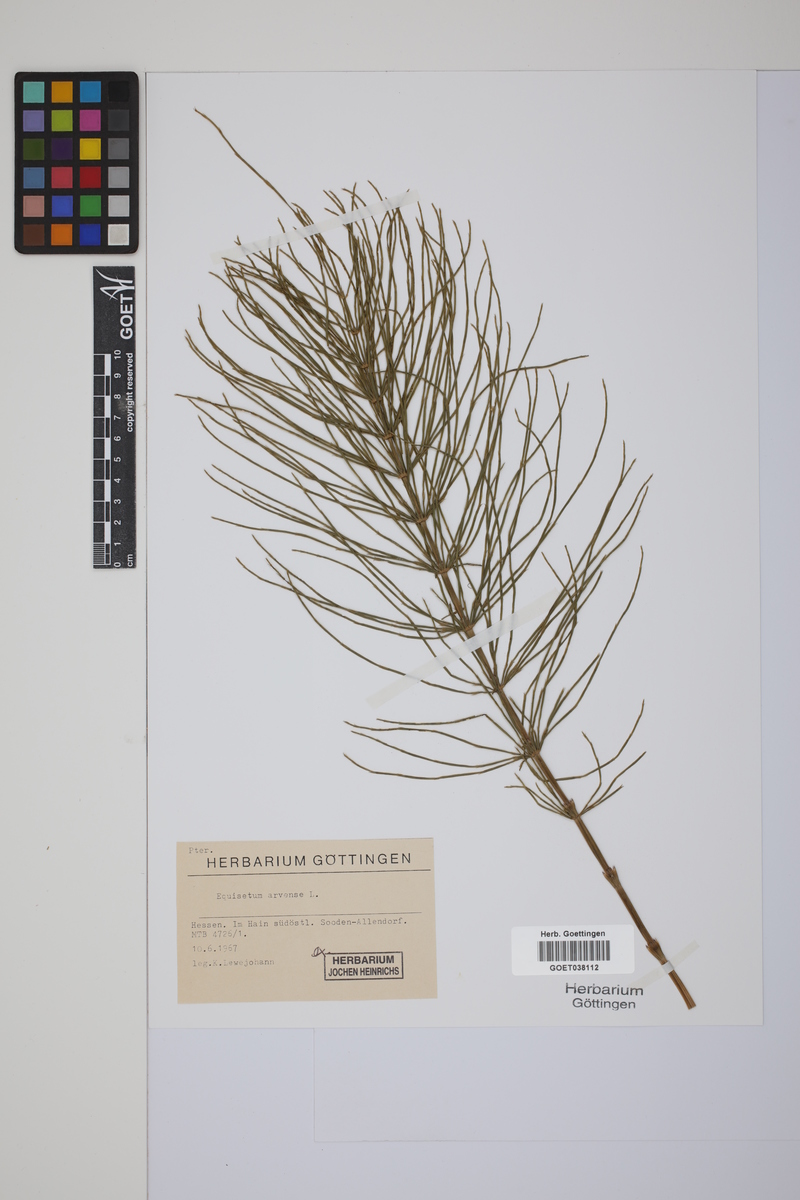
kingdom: Plantae
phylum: Tracheophyta
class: Polypodiopsida
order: Equisetales
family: Equisetaceae
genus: Equisetum
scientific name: Equisetum arvense
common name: Field horsetail
